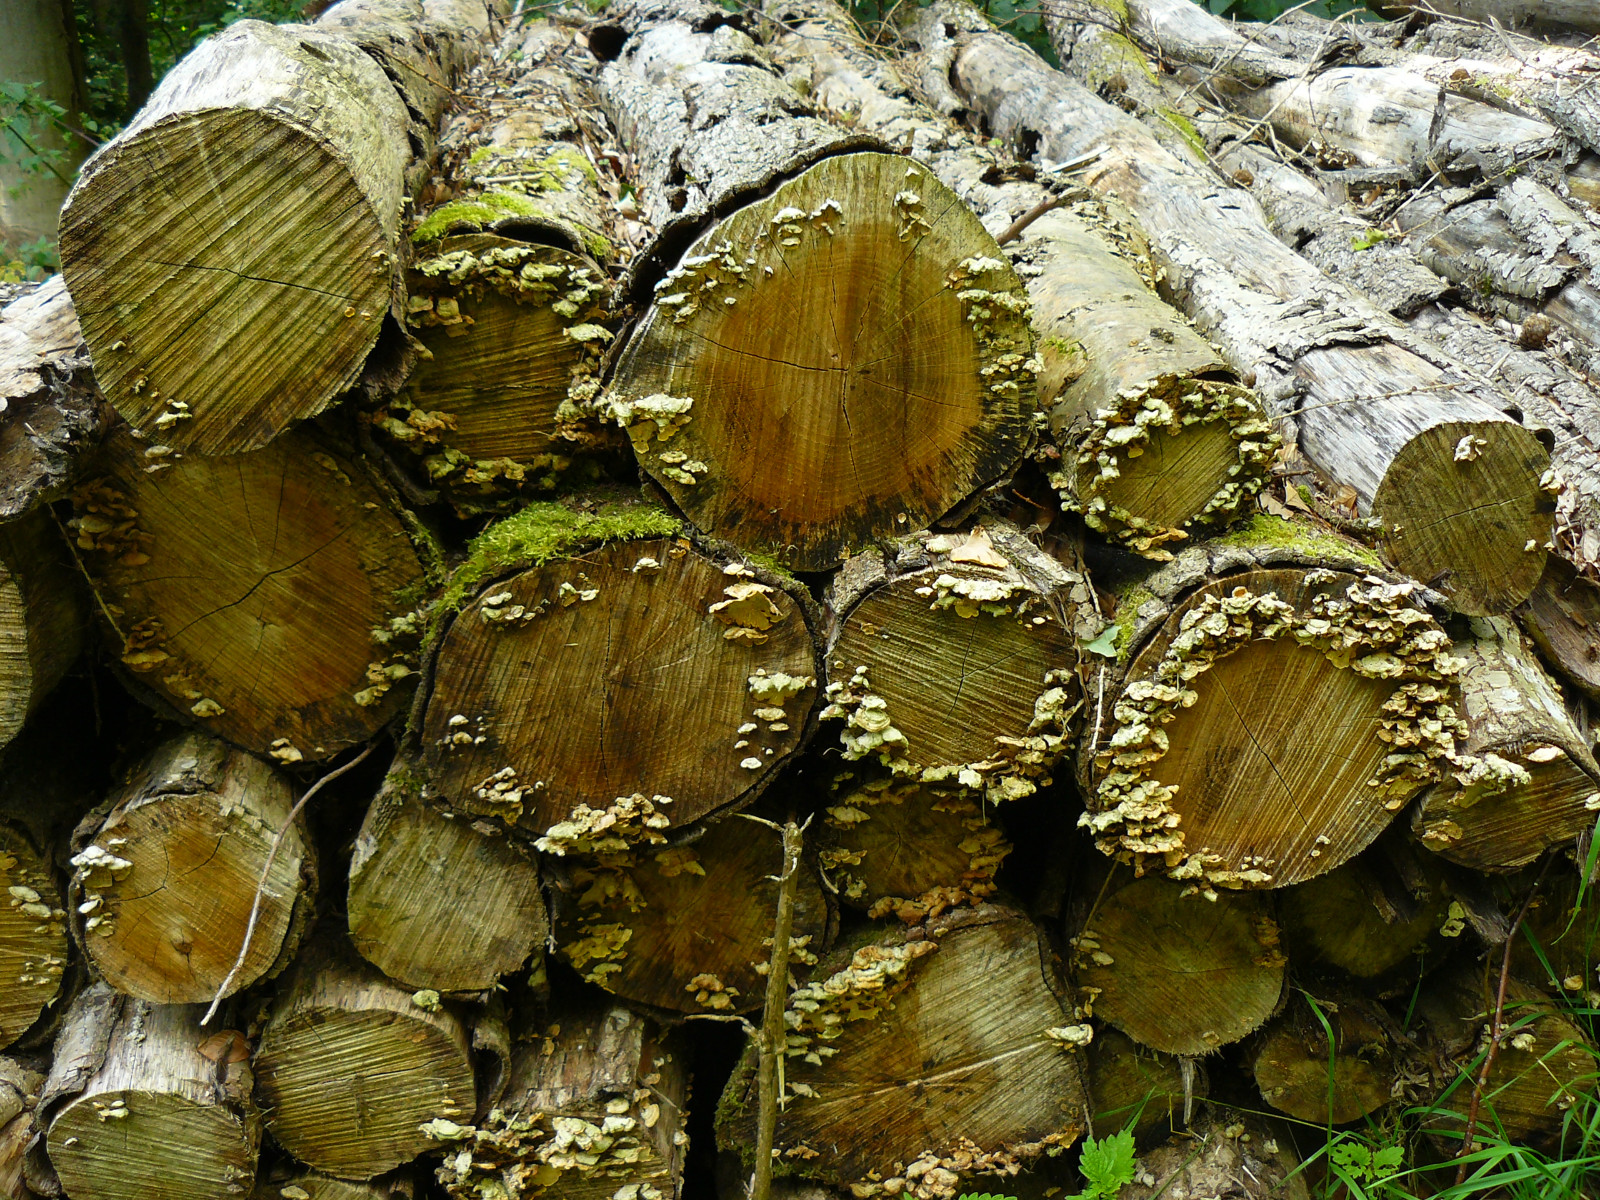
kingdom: Fungi
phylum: Basidiomycota
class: Agaricomycetes
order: Russulales
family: Stereaceae
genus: Stereum
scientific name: Stereum hirsutum
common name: håret lædersvamp
